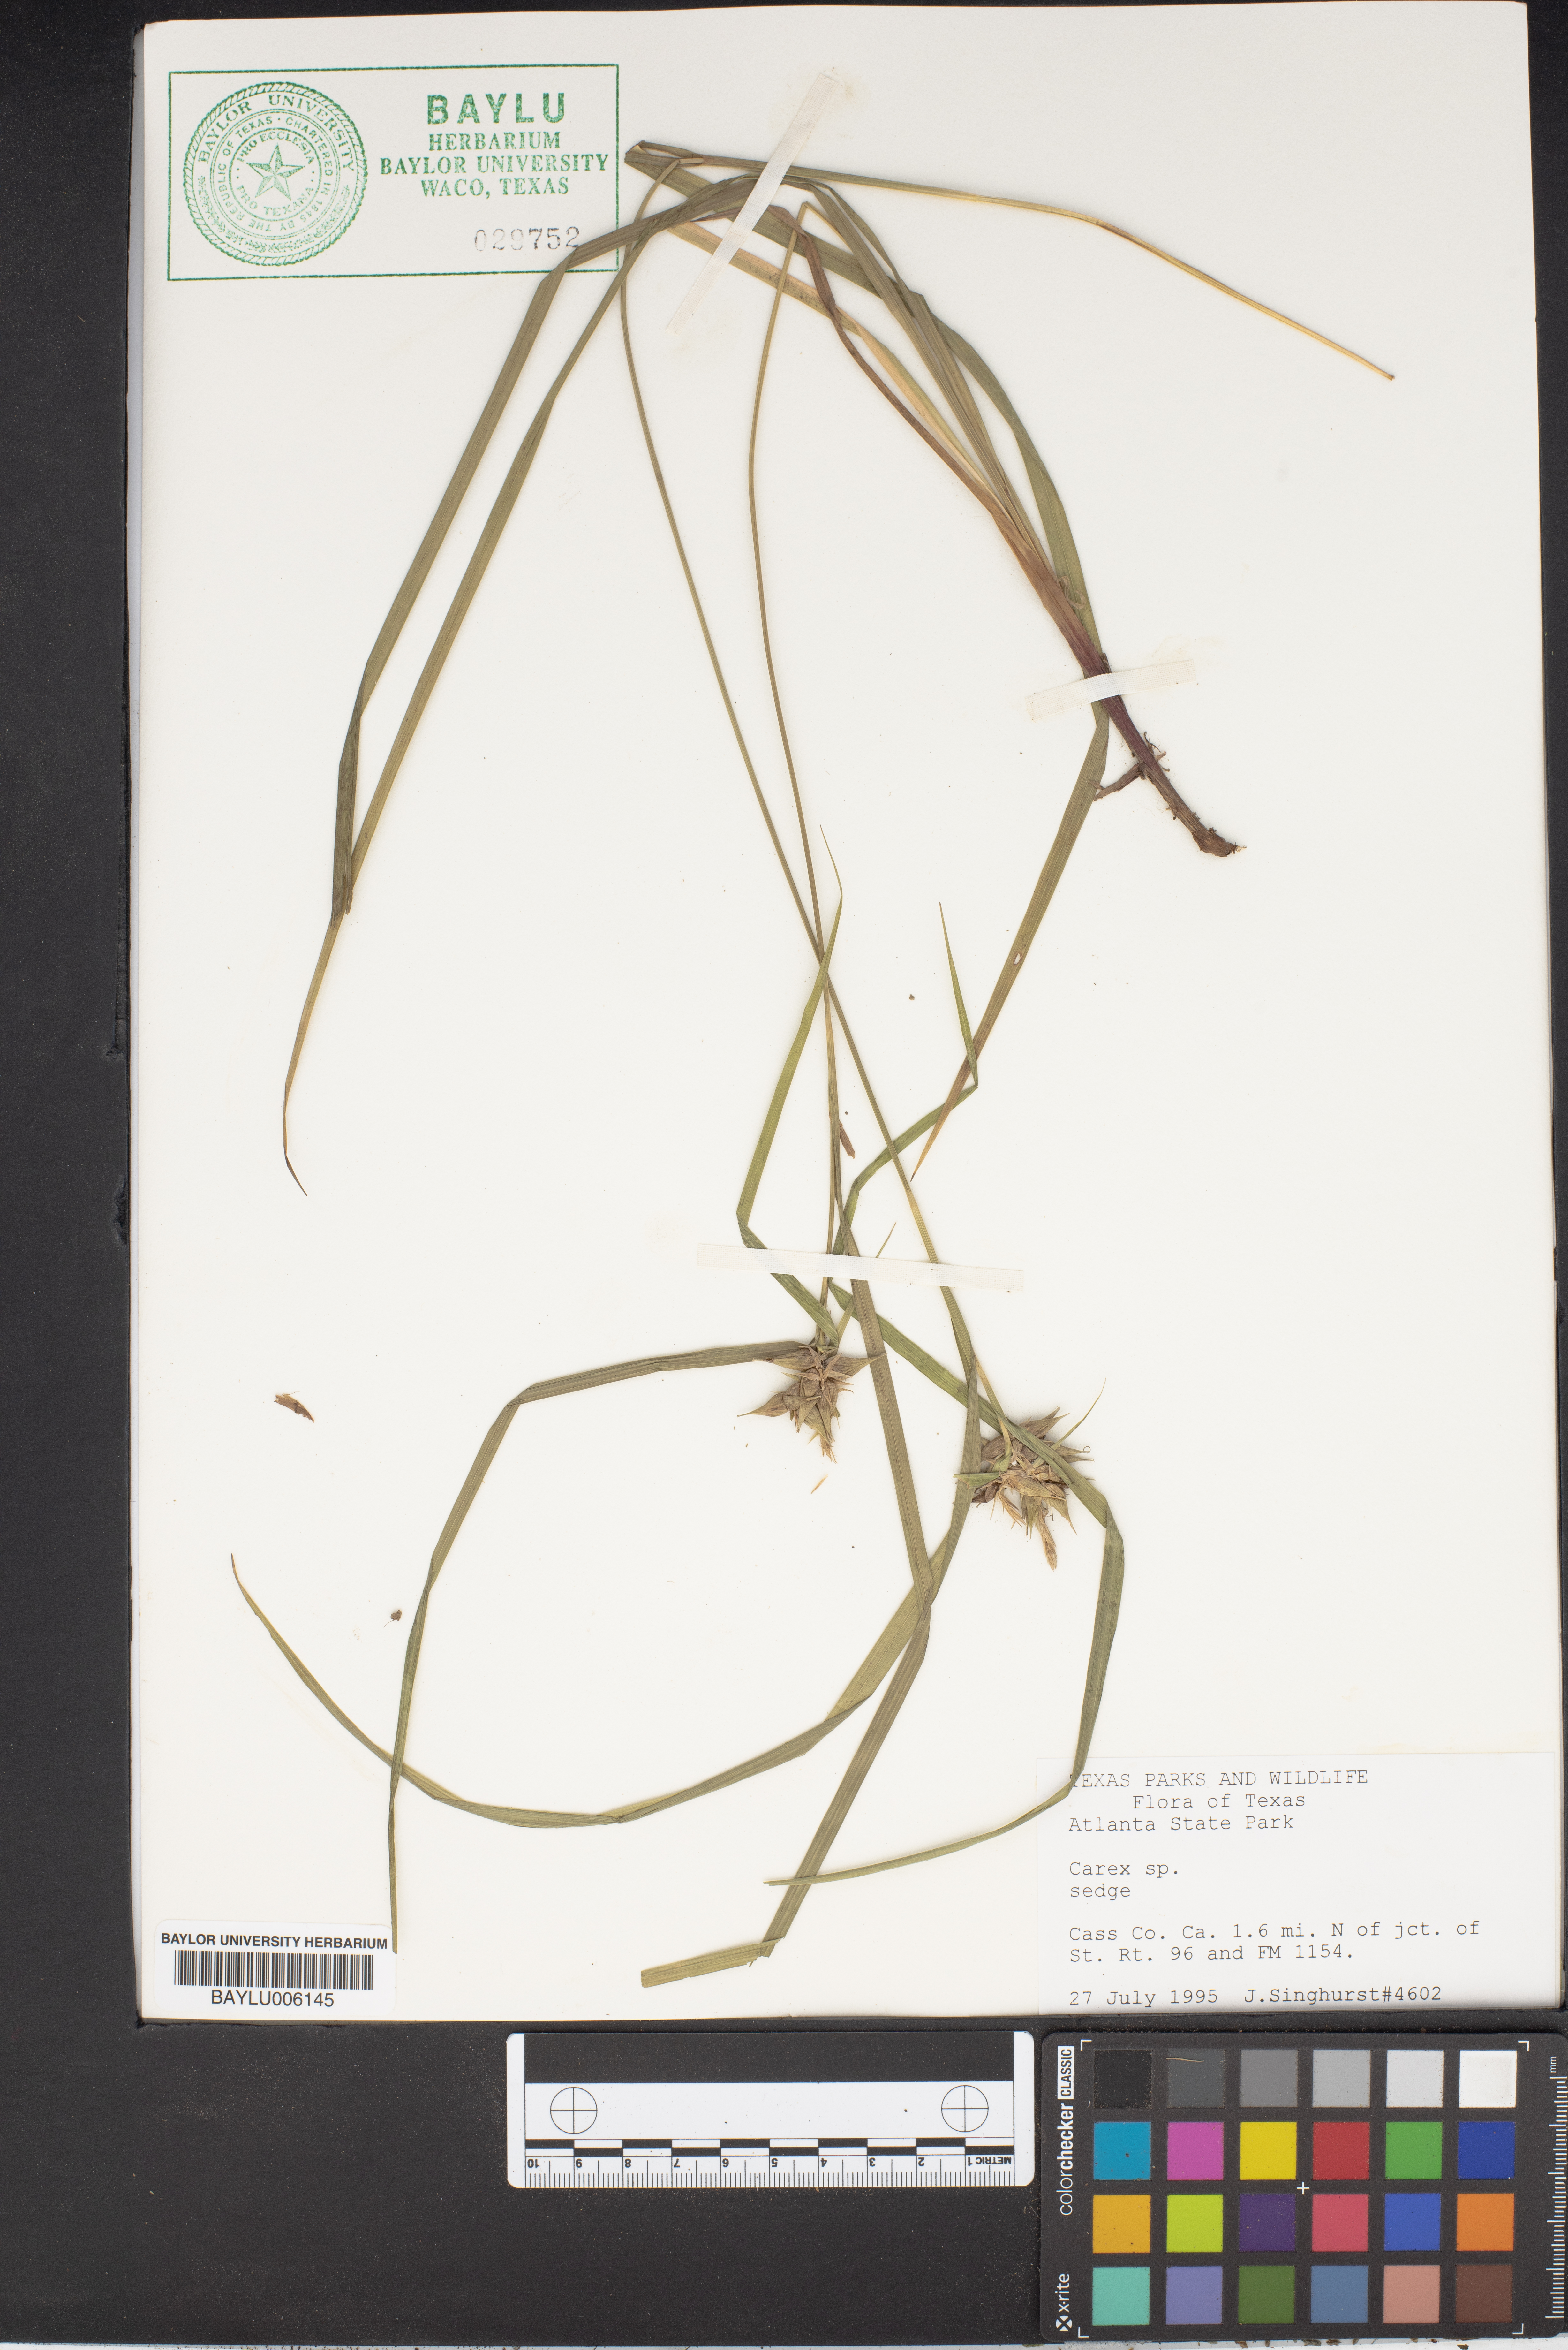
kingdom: Plantae
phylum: Tracheophyta
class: Liliopsida
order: Poales
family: Cyperaceae
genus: Carex
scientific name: Carex sparganioides
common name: Burreed sedge
